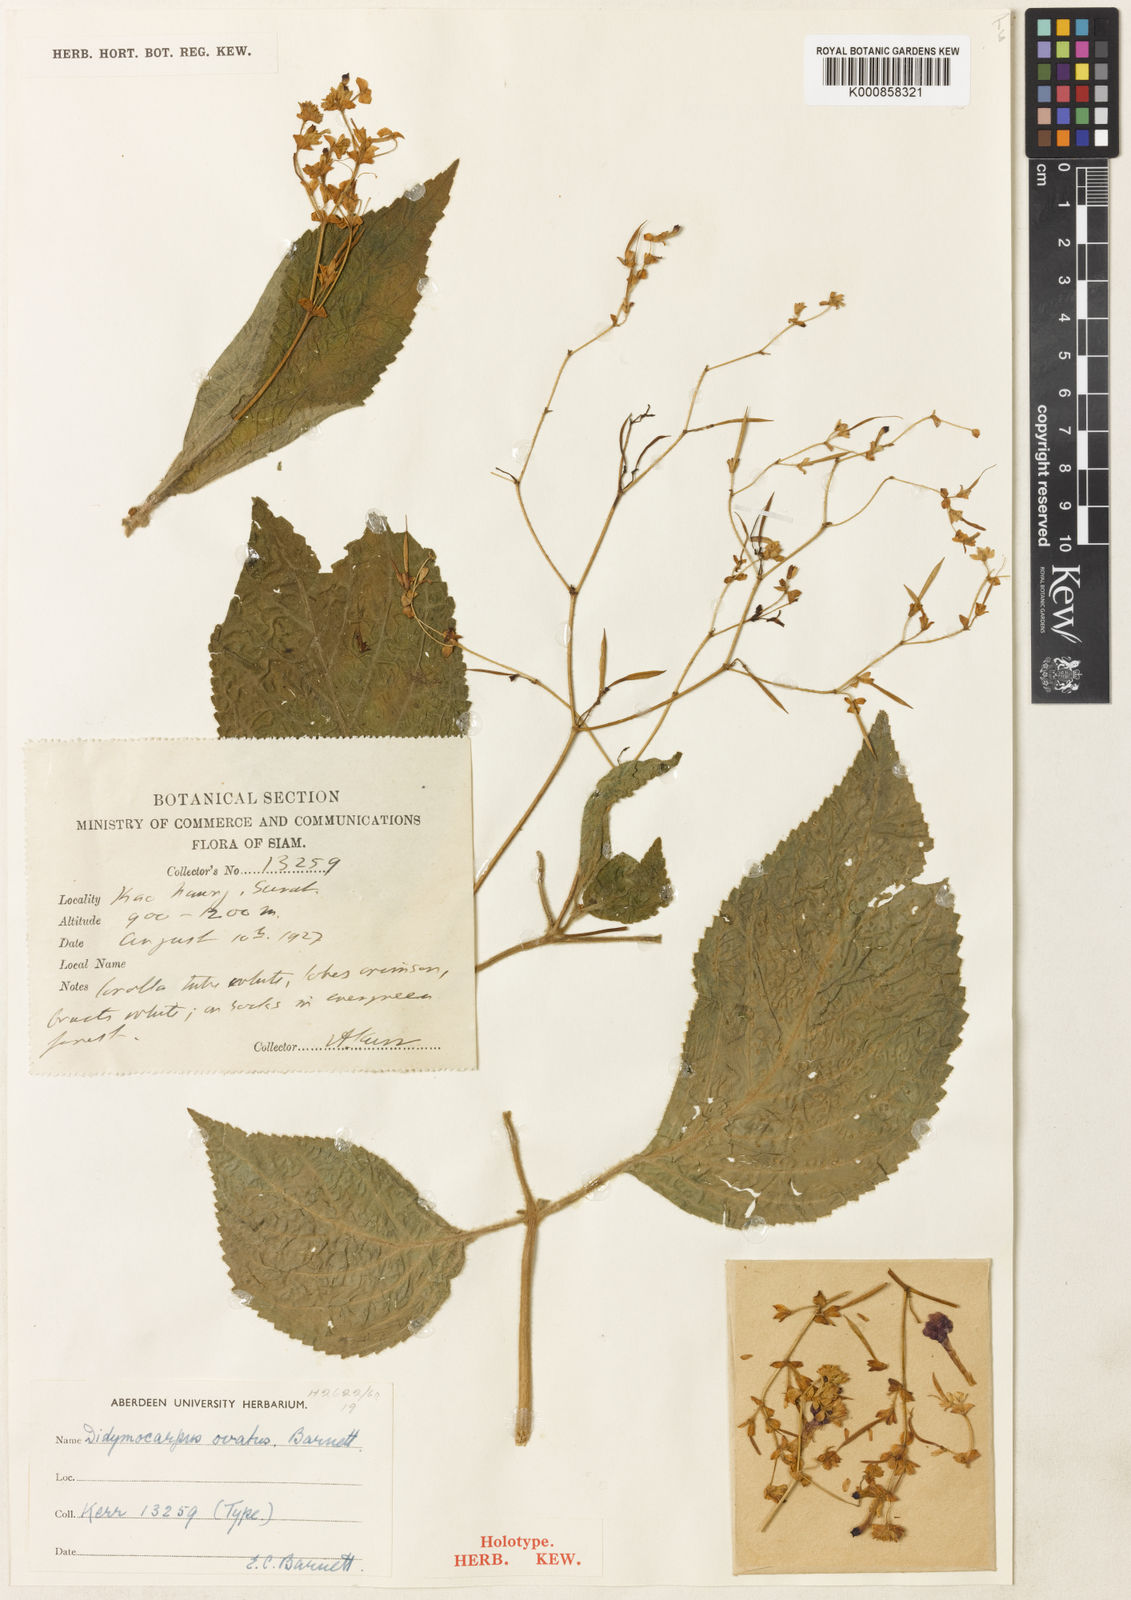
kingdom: Plantae
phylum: Tracheophyta
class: Magnoliopsida
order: Lamiales
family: Gesneriaceae
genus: Didymocarpus
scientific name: Didymocarpus ovatus
